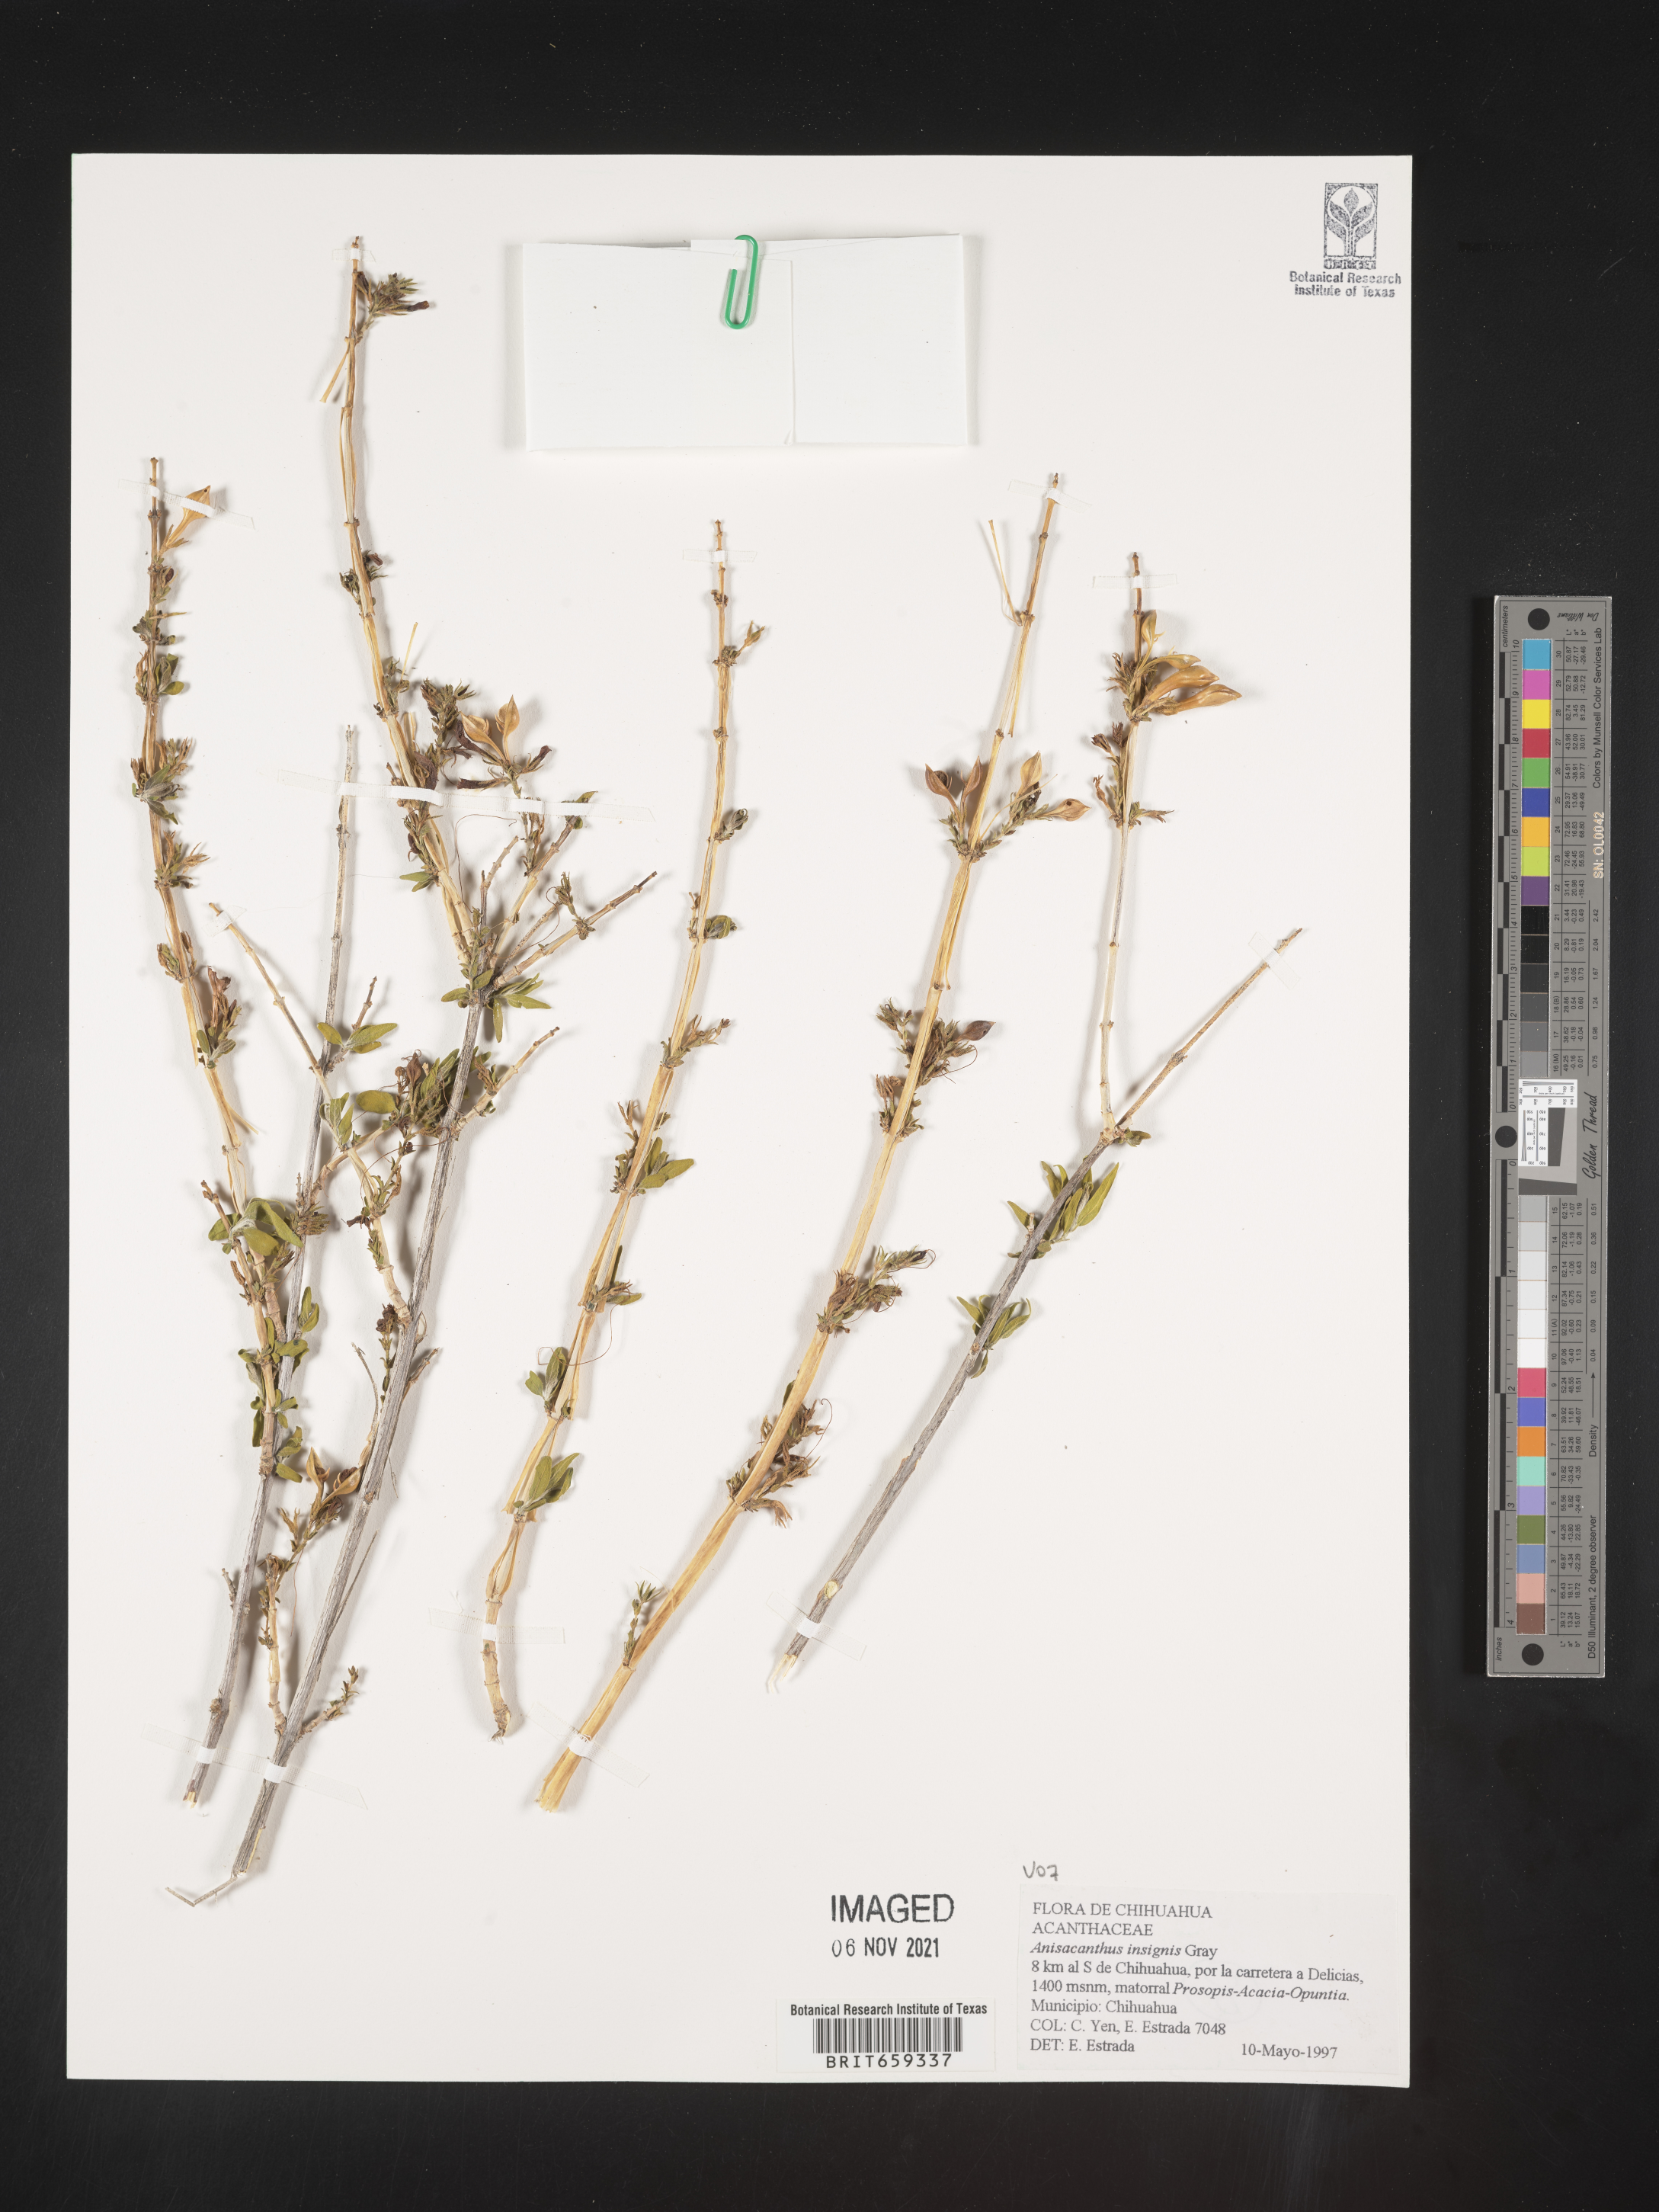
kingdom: Plantae
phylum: Tracheophyta
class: Magnoliopsida
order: Lamiales
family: Acanthaceae
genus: Anisacanthus
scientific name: Anisacanthus
